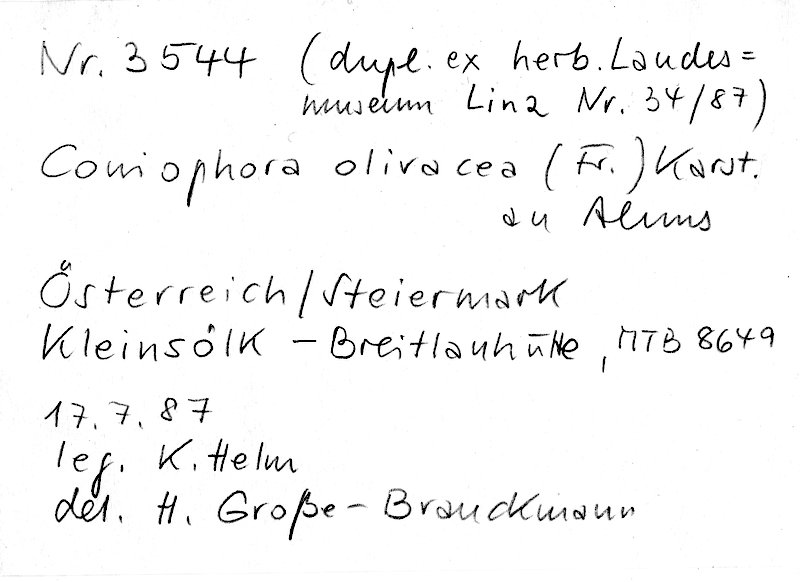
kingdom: Fungi
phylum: Basidiomycota
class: Agaricomycetes
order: Boletales
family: Coniophoraceae
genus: Coniophora
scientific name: Coniophora olivacea
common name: Olive duster
